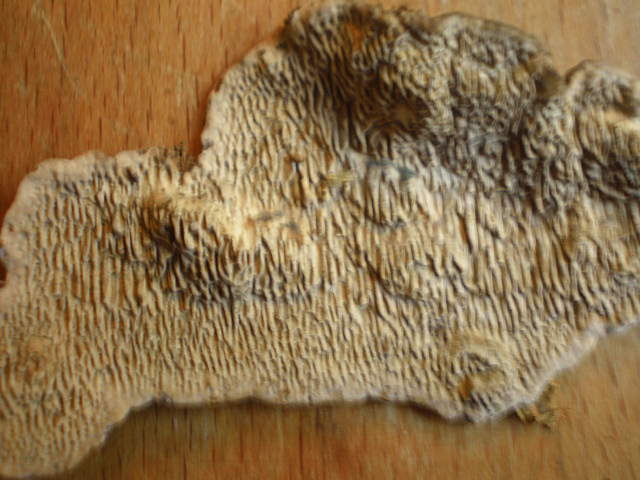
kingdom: Fungi
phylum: Basidiomycota
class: Agaricomycetes
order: Polyporales
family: Polyporaceae
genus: Podofomes
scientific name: Podofomes mollis
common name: blød begporesvamp
